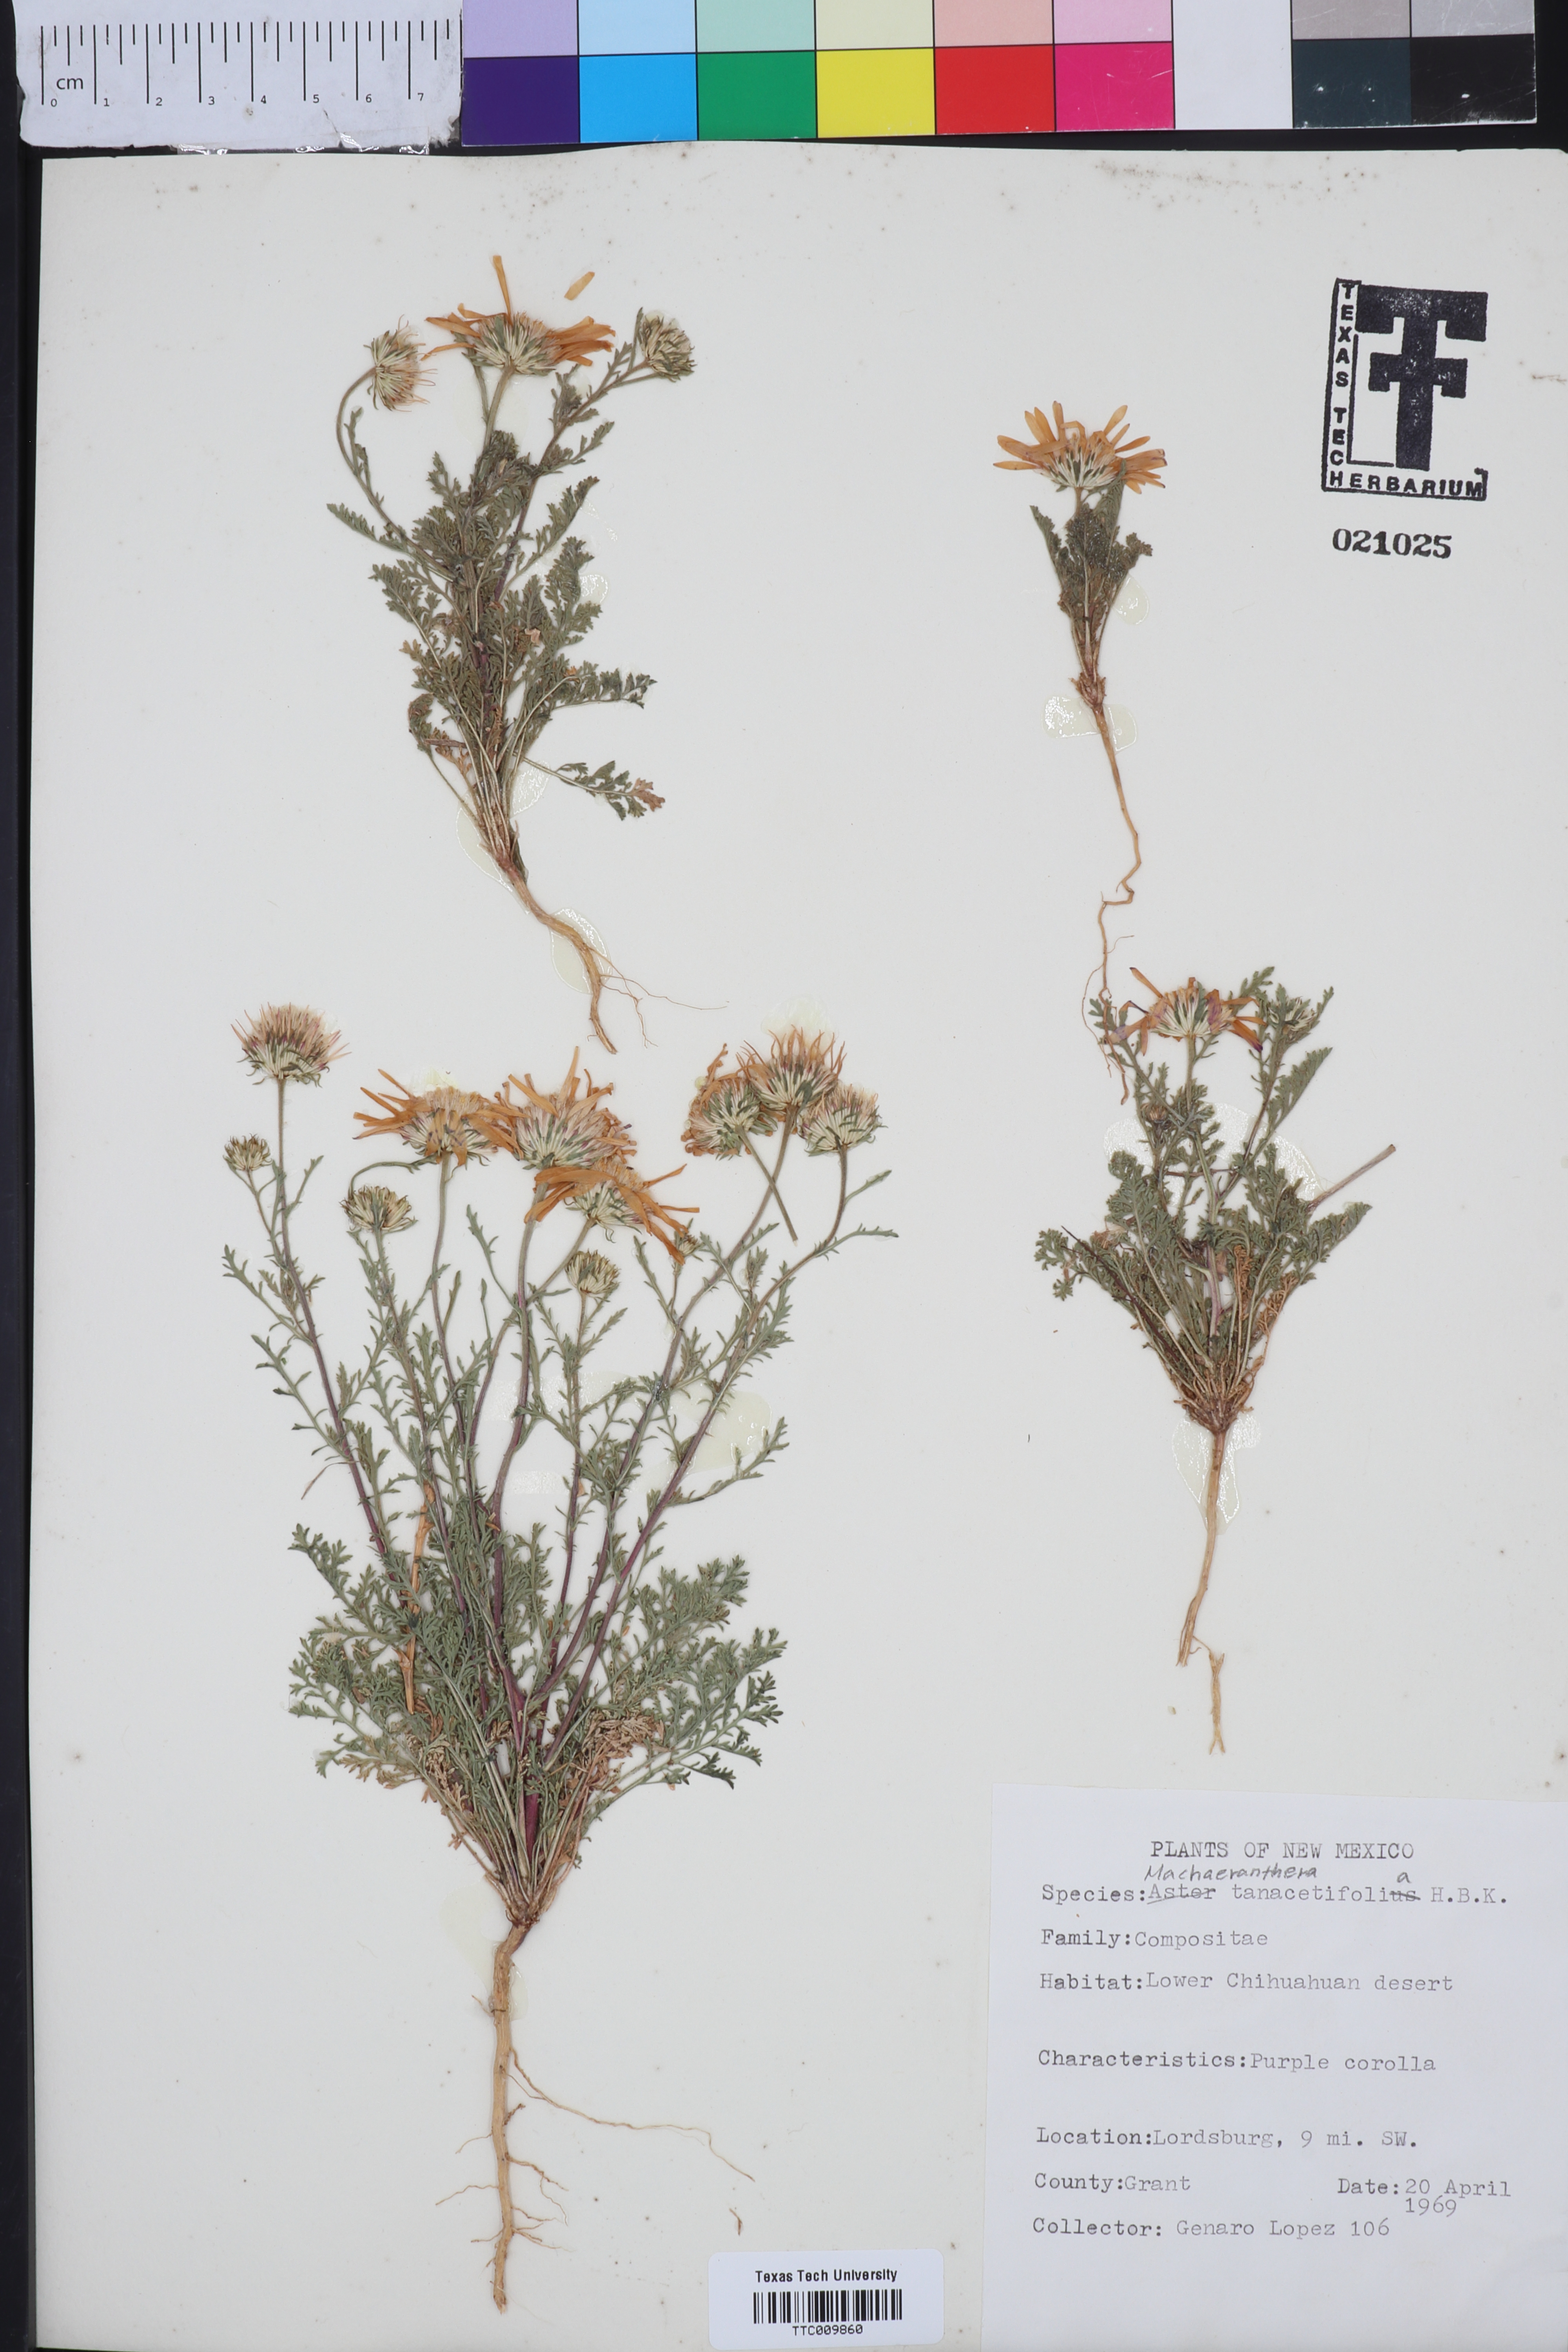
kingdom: Plantae
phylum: Tracheophyta
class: Magnoliopsida
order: Asterales
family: Asteraceae
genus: Machaeranthera
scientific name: Machaeranthera tanacetifolia
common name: Tansy-aster
